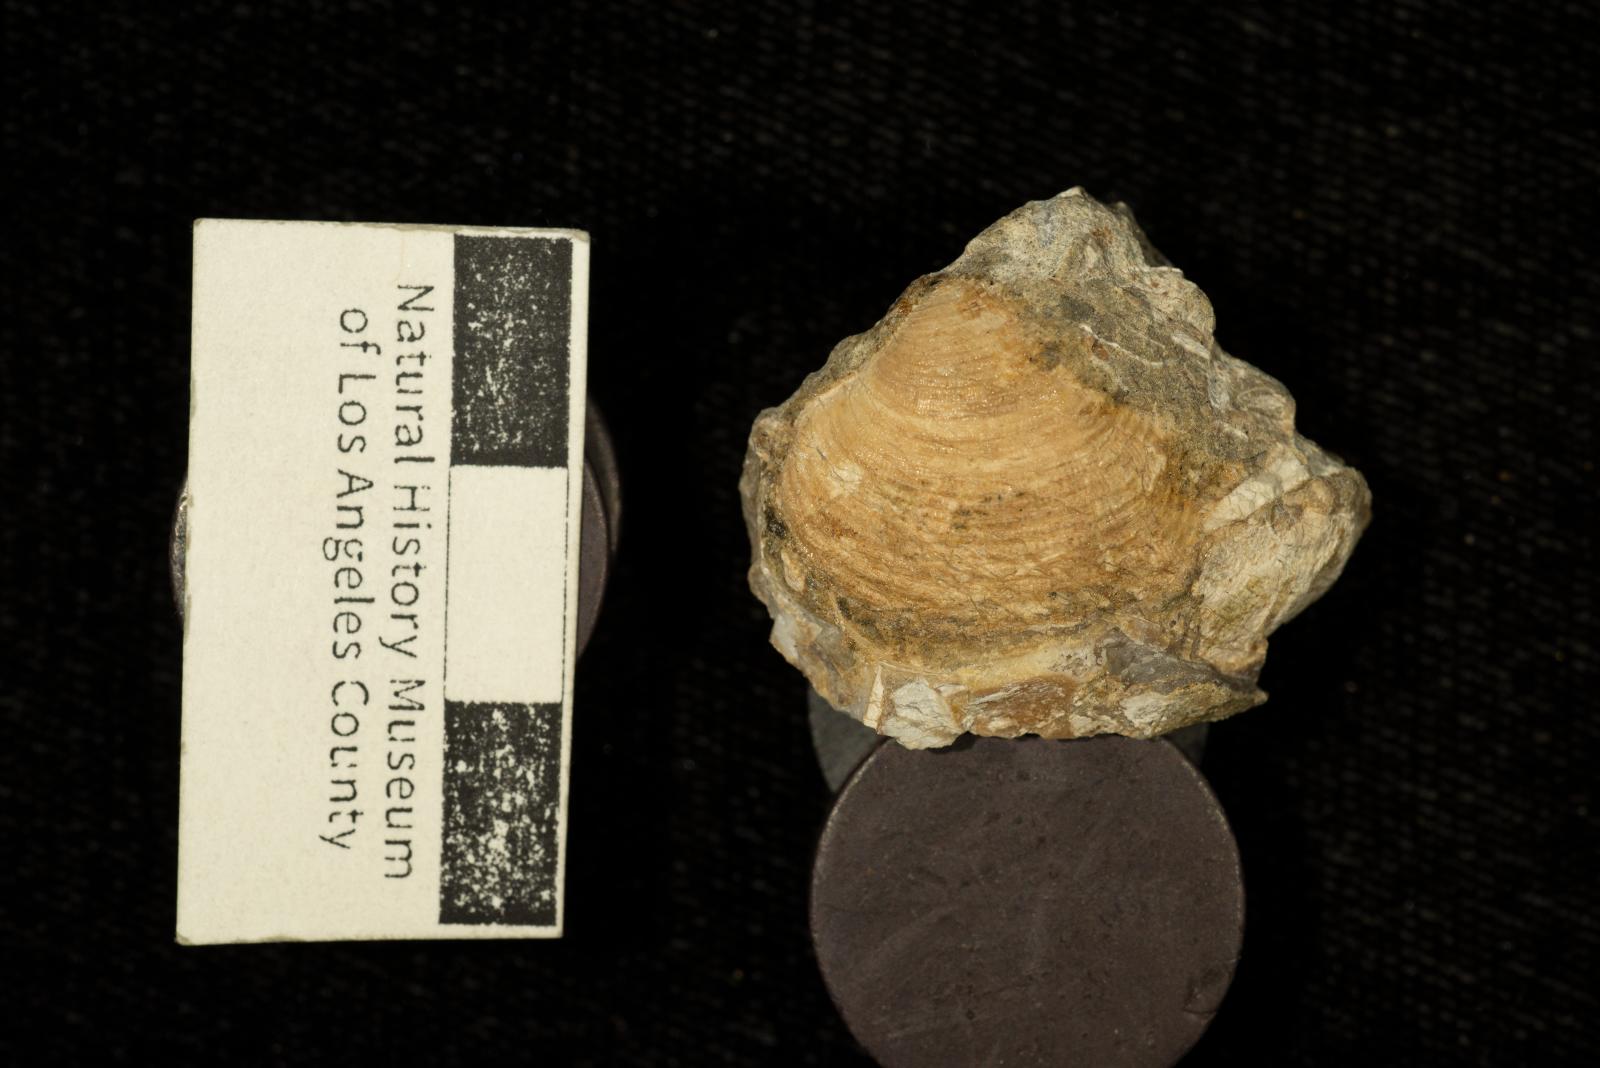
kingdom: Animalia
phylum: Mollusca
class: Bivalvia
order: Carditida
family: Crassatellidae
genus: Crassatella
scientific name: Crassatella
